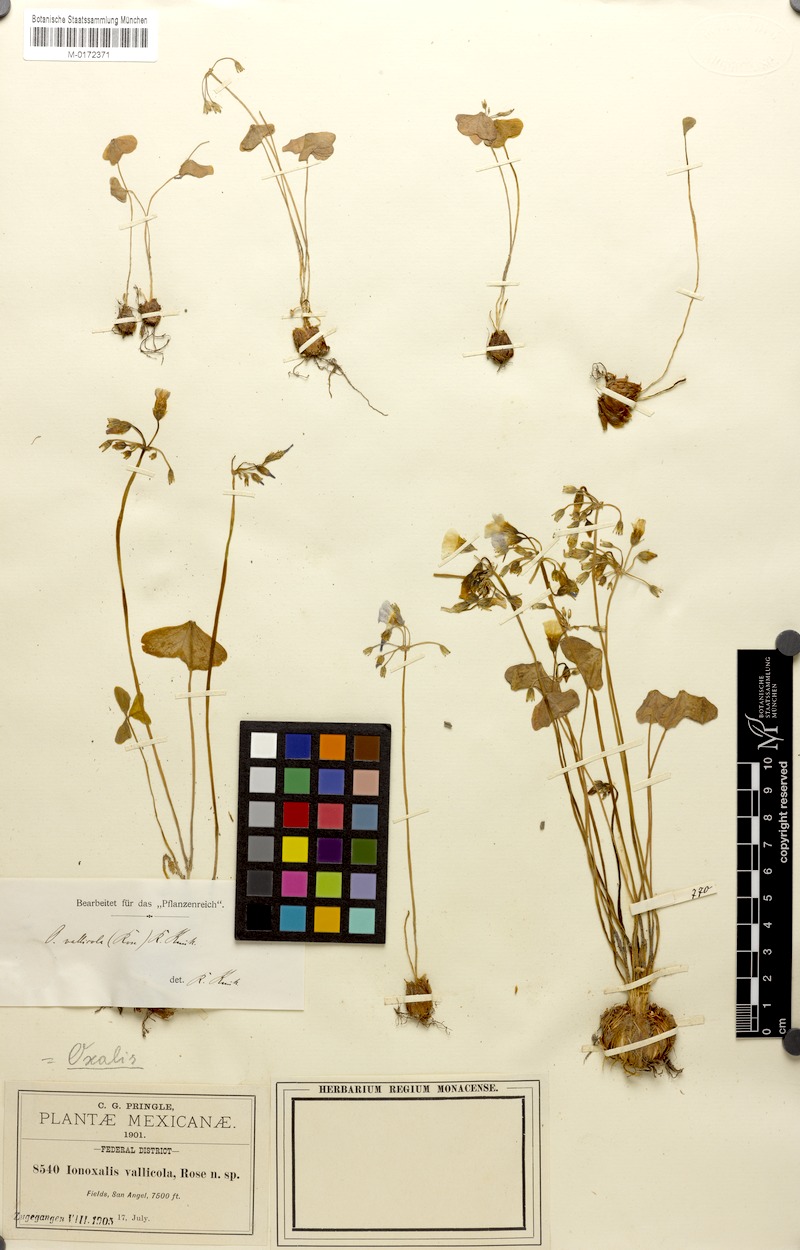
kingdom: Plantae
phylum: Tracheophyta
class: Magnoliopsida
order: Oxalidales
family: Oxalidaceae
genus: Oxalis
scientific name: Oxalis latifolia
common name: Garden pink-sorrel
